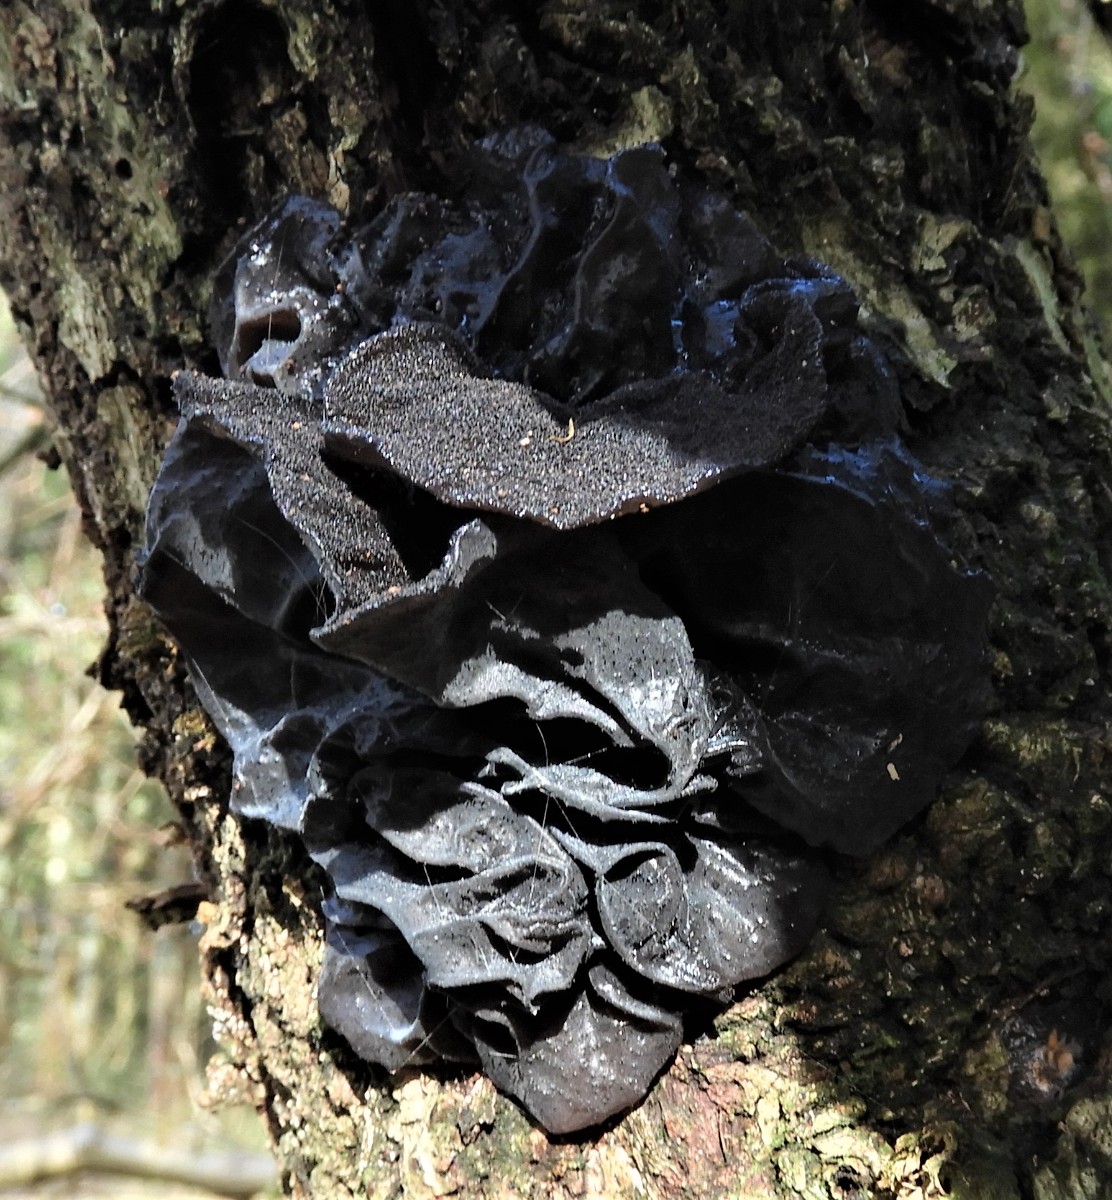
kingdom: Fungi
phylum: Basidiomycota
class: Agaricomycetes
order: Auriculariales
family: Auriculariaceae
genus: Exidia
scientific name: Exidia glandulosa
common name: ege-bævretop
